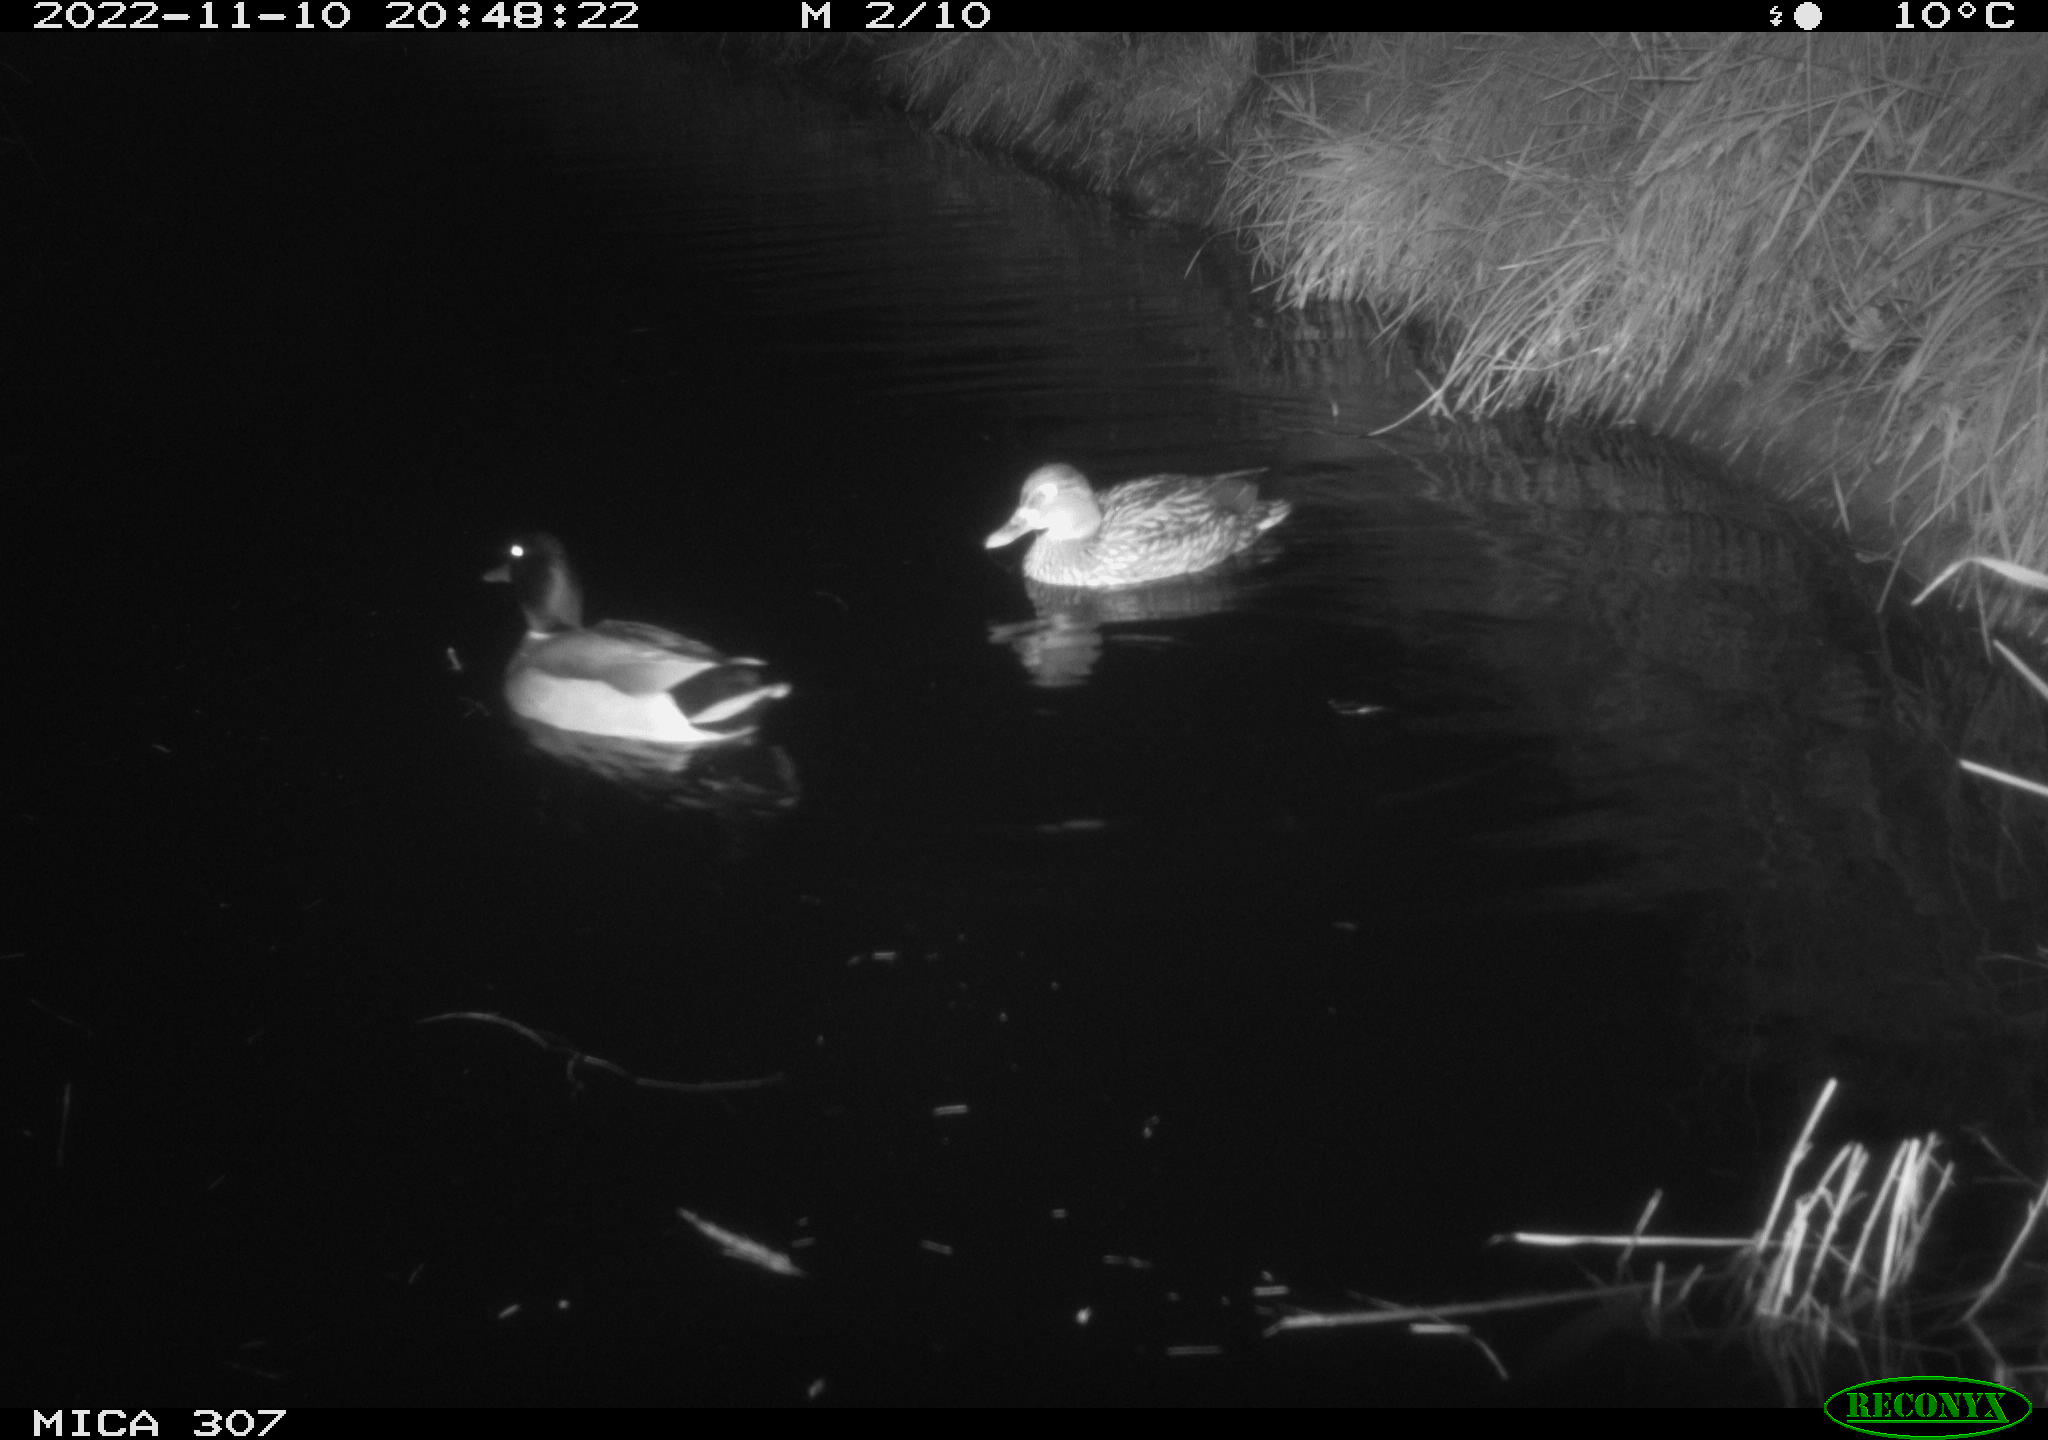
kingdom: Animalia
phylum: Chordata
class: Aves
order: Anseriformes
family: Anatidae
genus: Anas
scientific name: Anas
